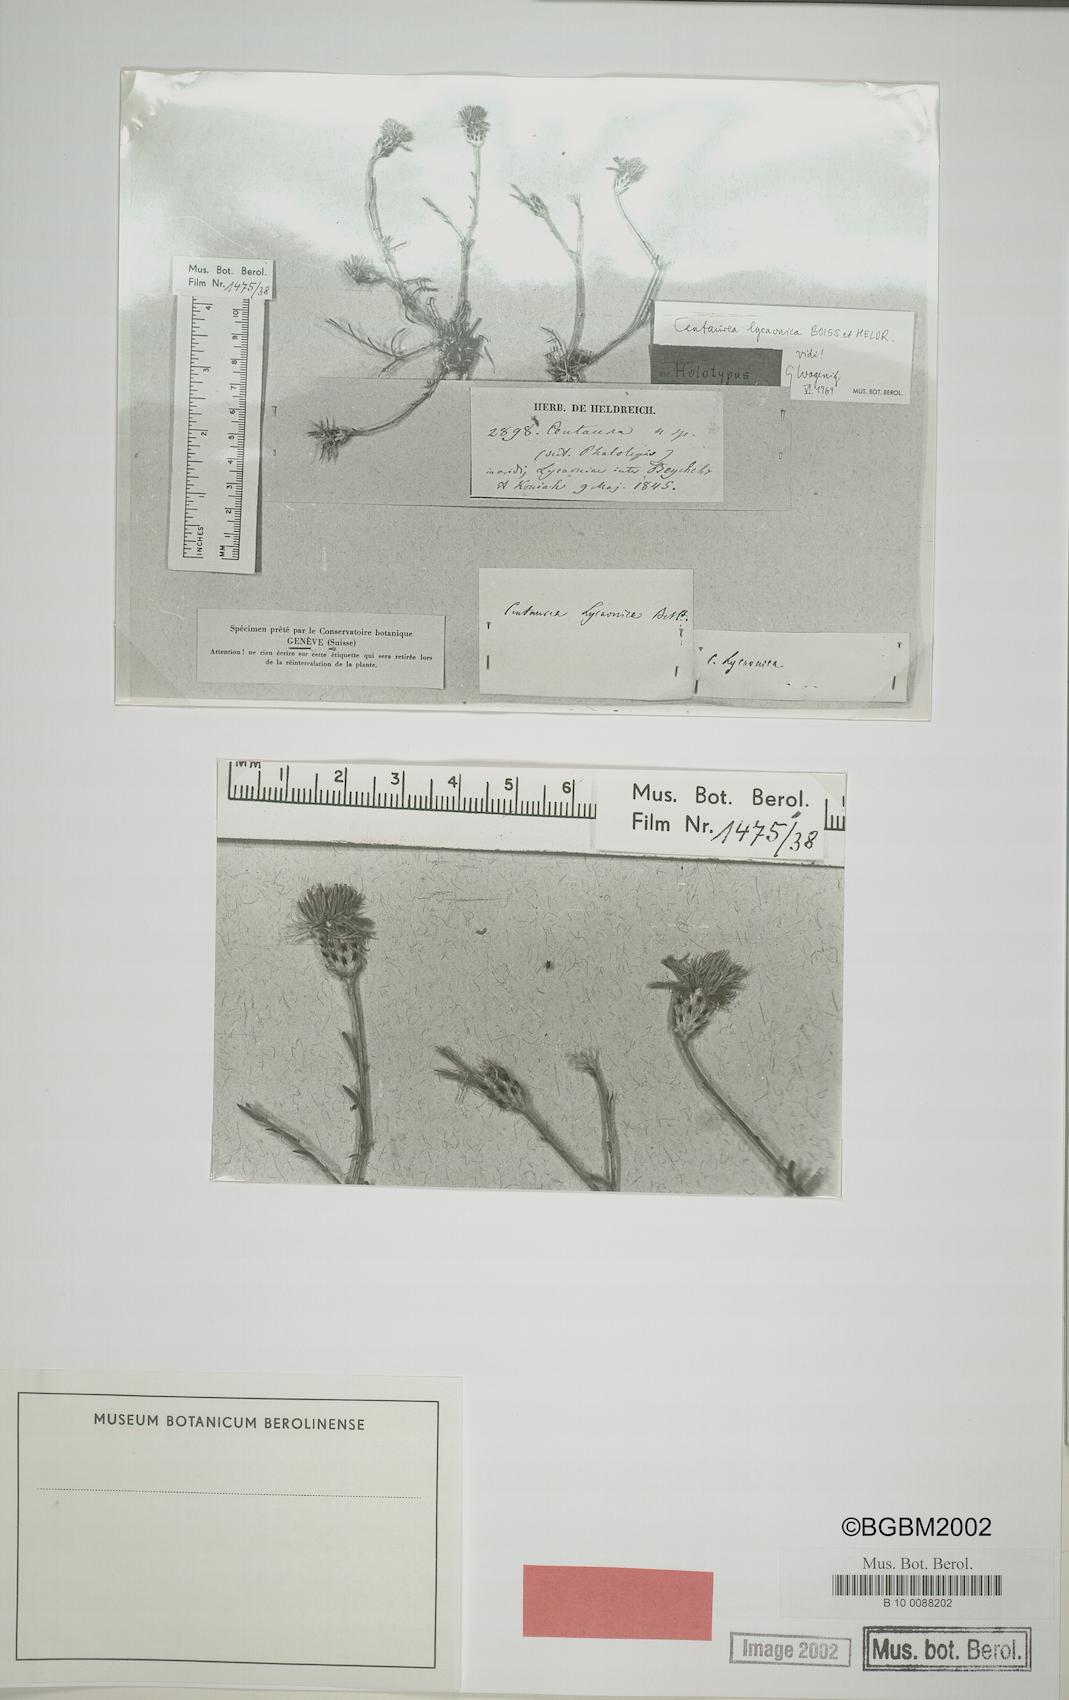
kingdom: Plantae
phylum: Tracheophyta
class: Magnoliopsida
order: Asterales
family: Asteraceae
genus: Centaurea
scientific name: Centaurea lycaonica
